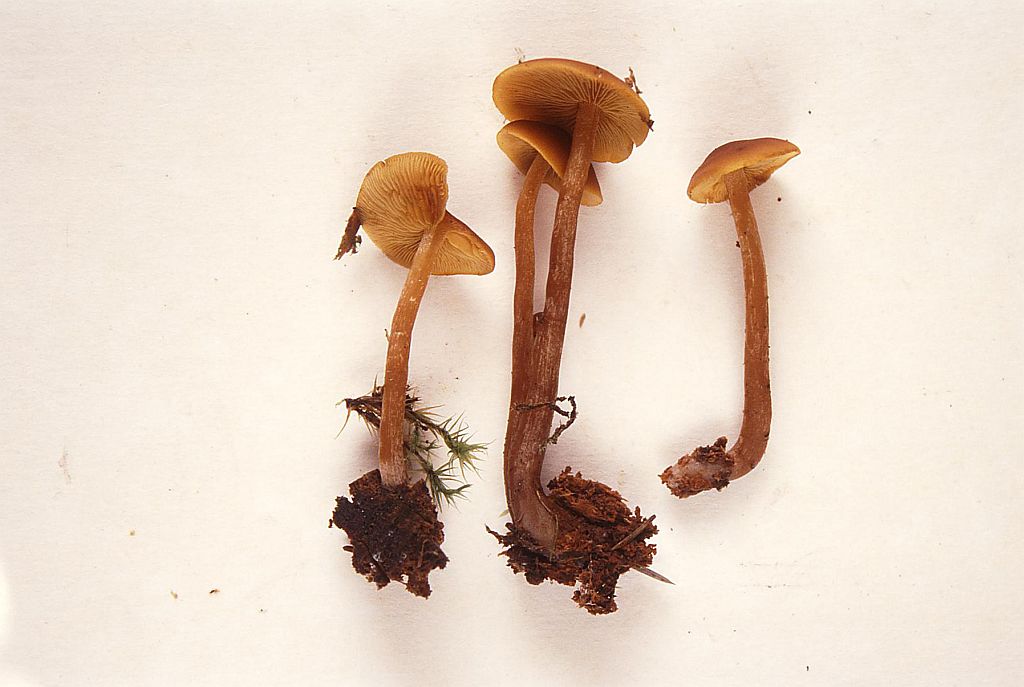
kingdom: Fungi
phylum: Basidiomycota
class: Agaricomycetes
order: Agaricales
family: Hymenogastraceae
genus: Gymnopilus
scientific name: Gymnopilus picreus
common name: puklet flammehat
